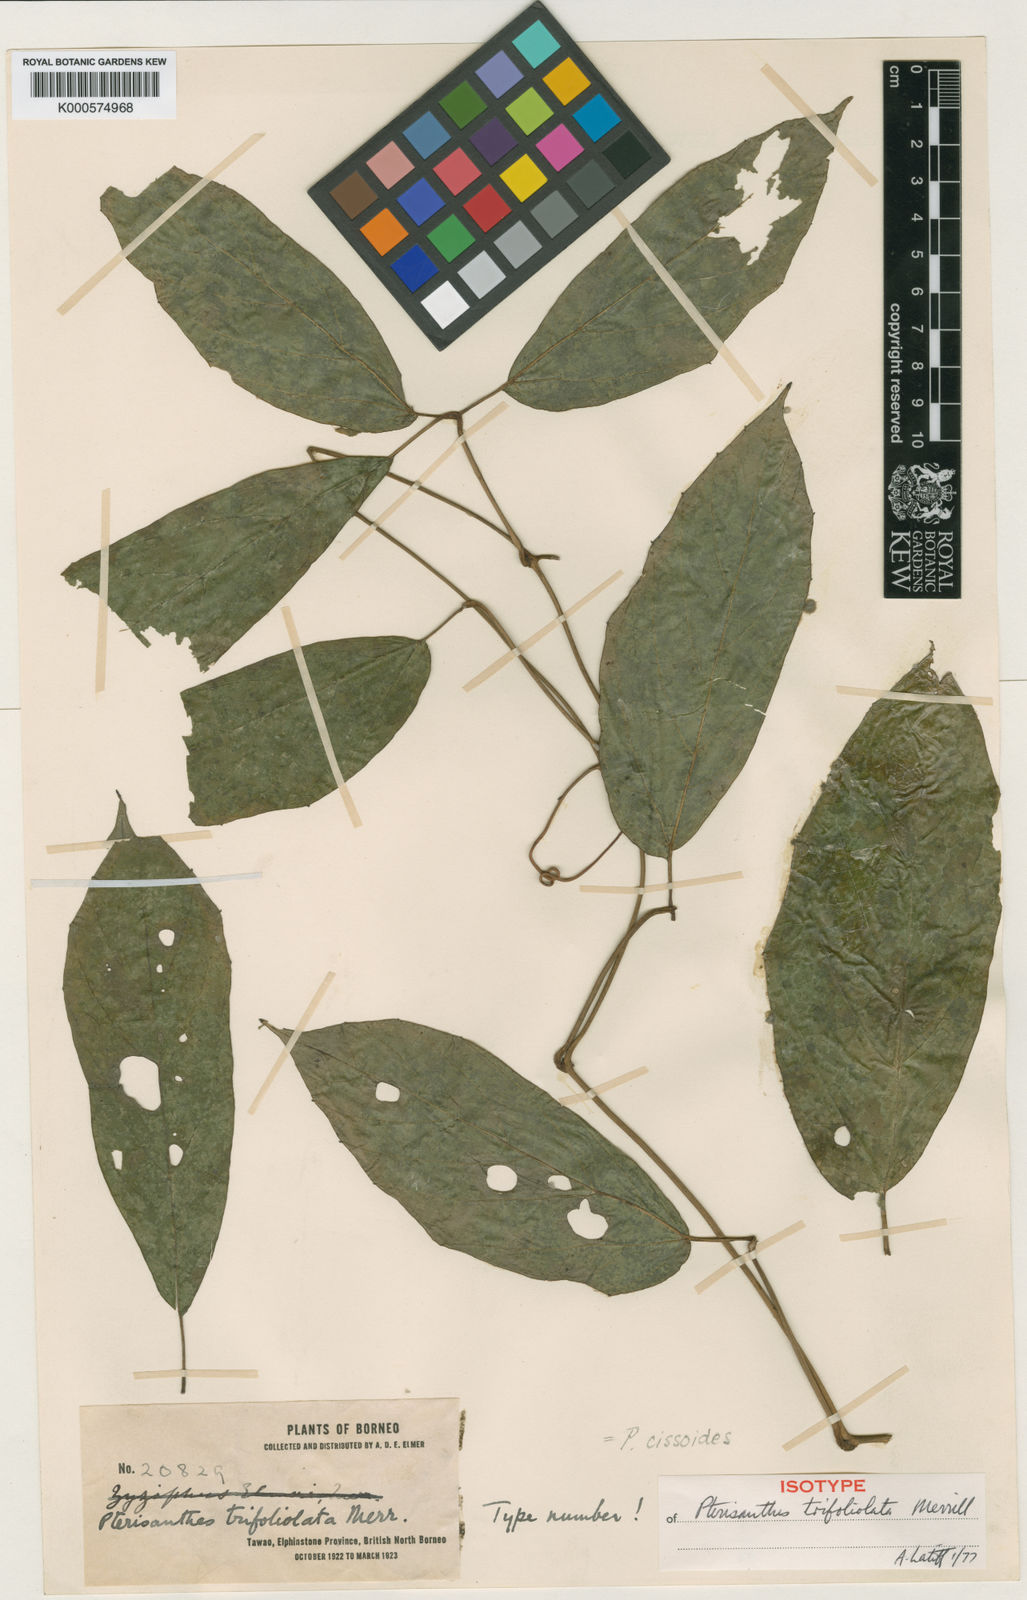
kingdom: Plantae
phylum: Tracheophyta
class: Magnoliopsida
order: Vitales
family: Vitaceae
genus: Pterisanthes
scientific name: Pterisanthes cissioides
